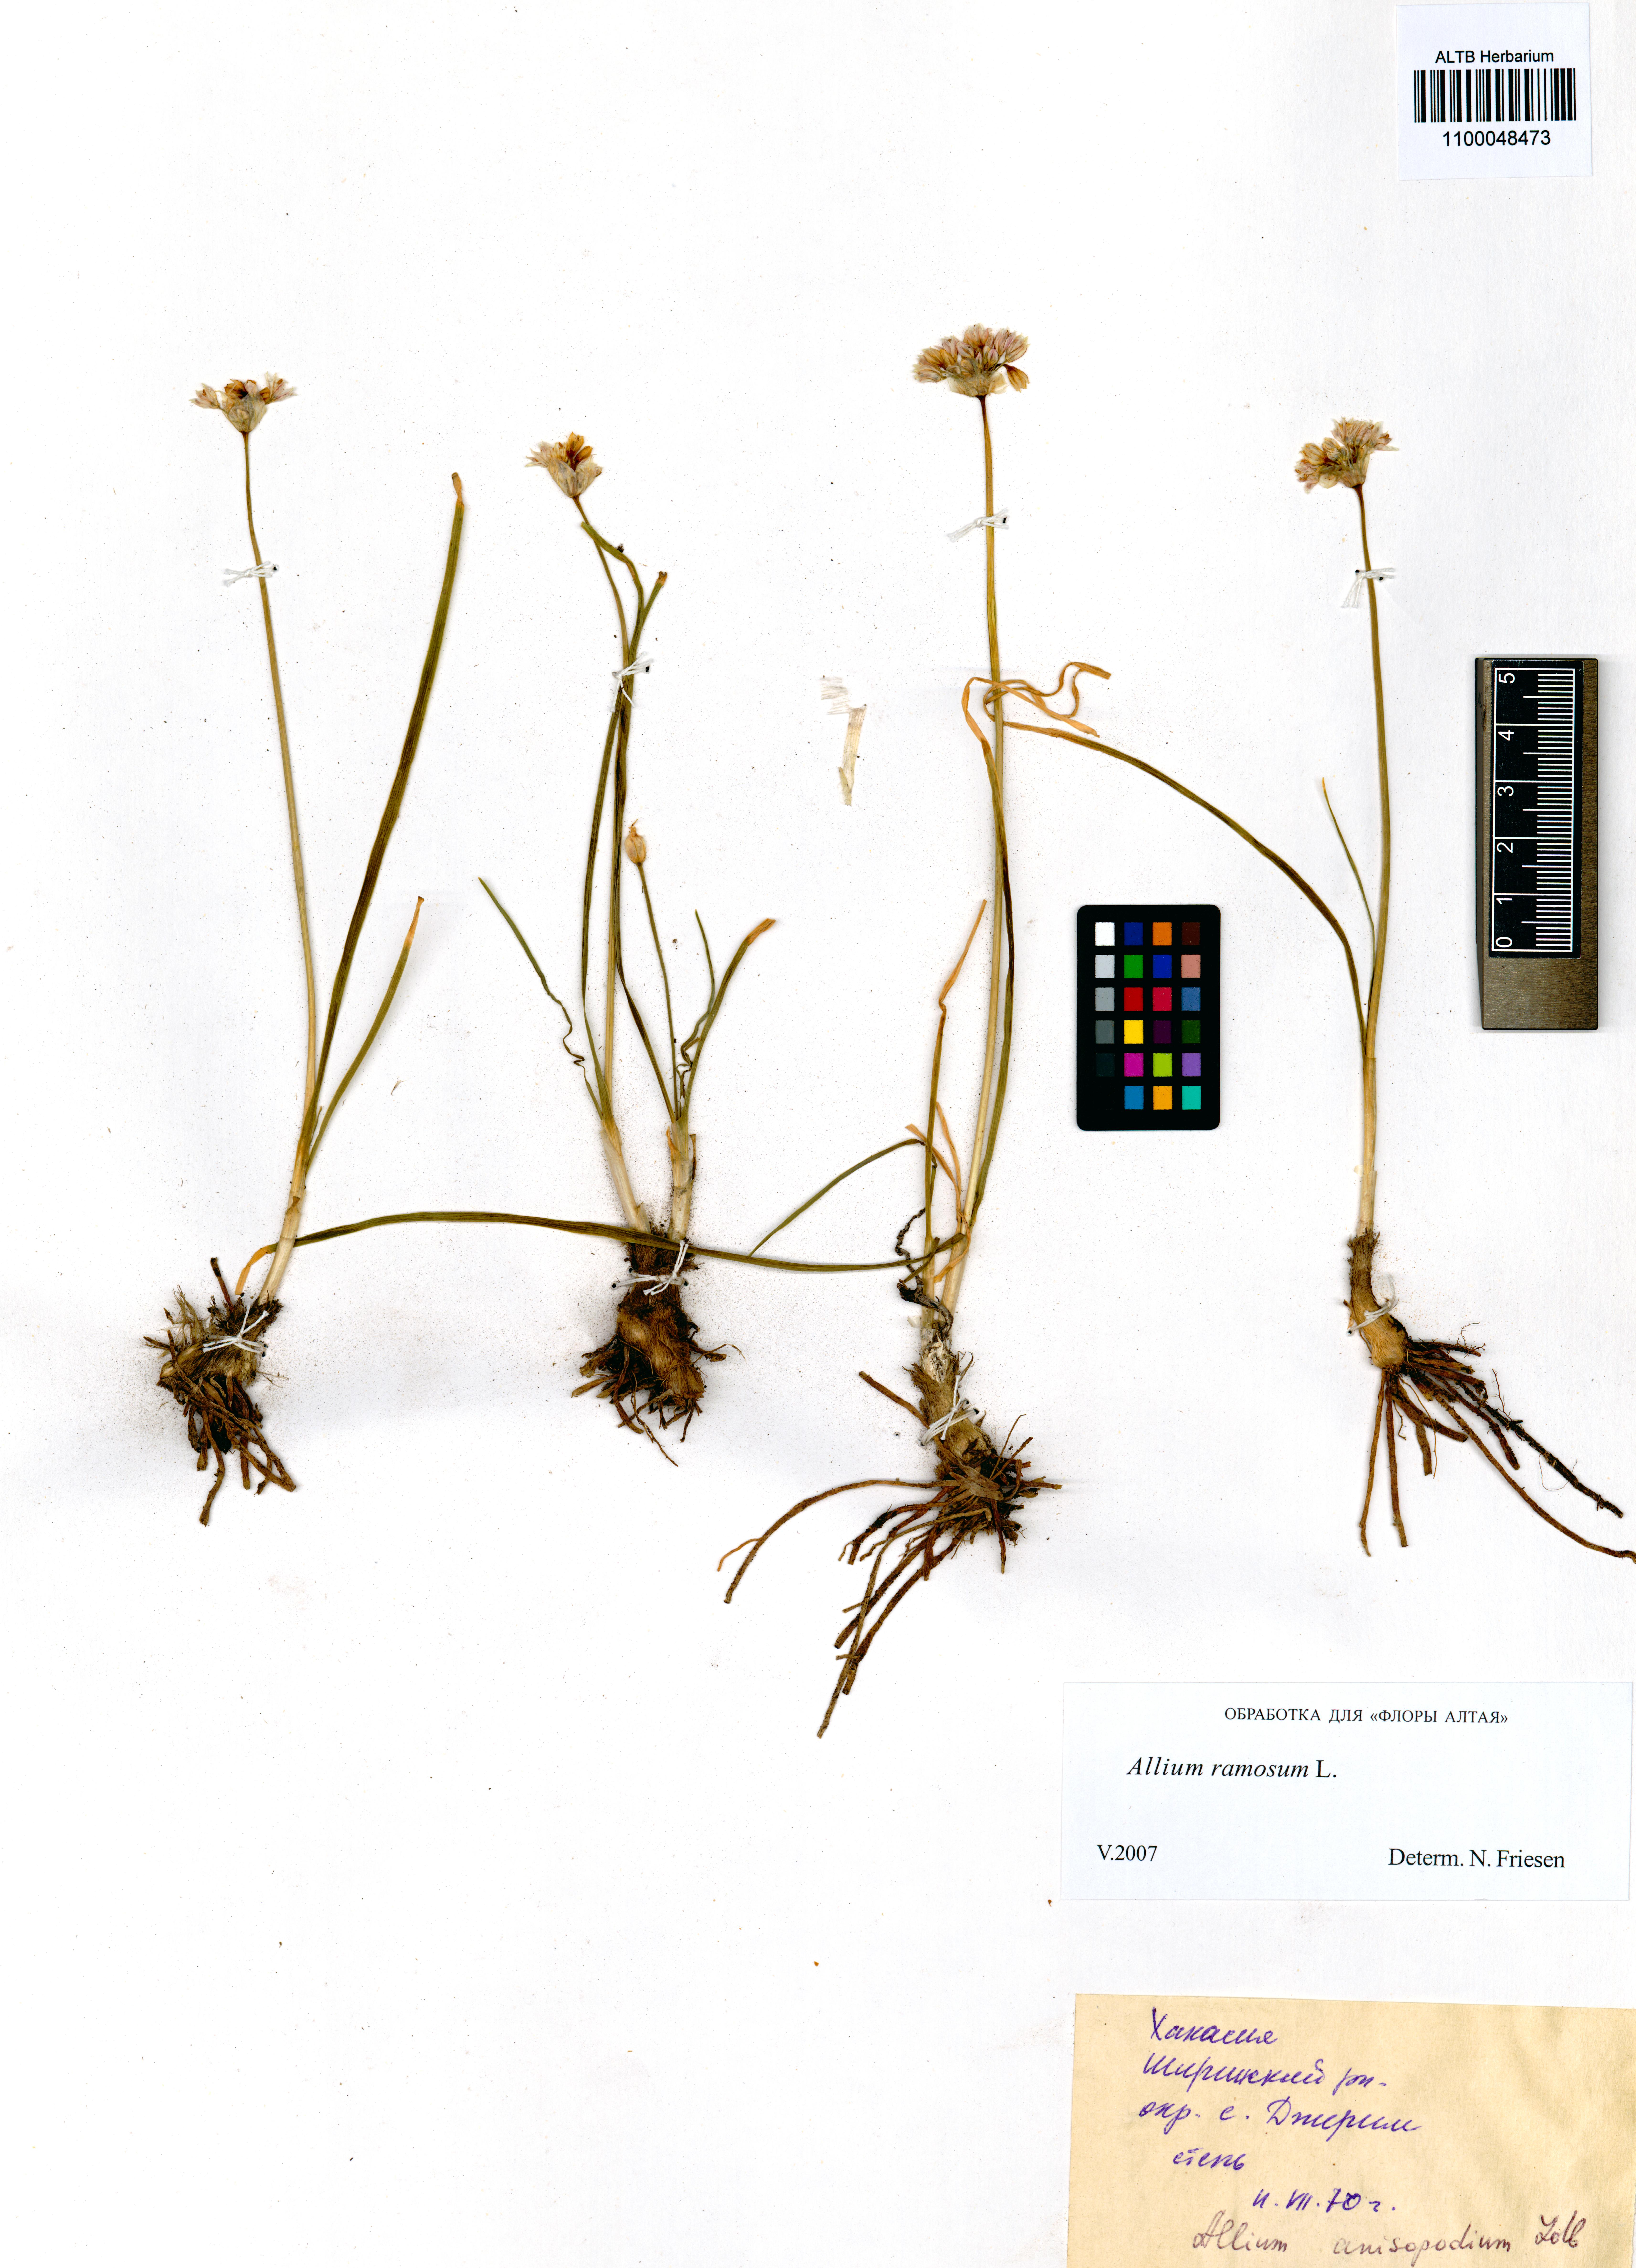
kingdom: Plantae
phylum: Tracheophyta
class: Liliopsida
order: Asparagales
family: Amaryllidaceae
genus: Allium
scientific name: Allium ramosum
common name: Fragrant garlic
